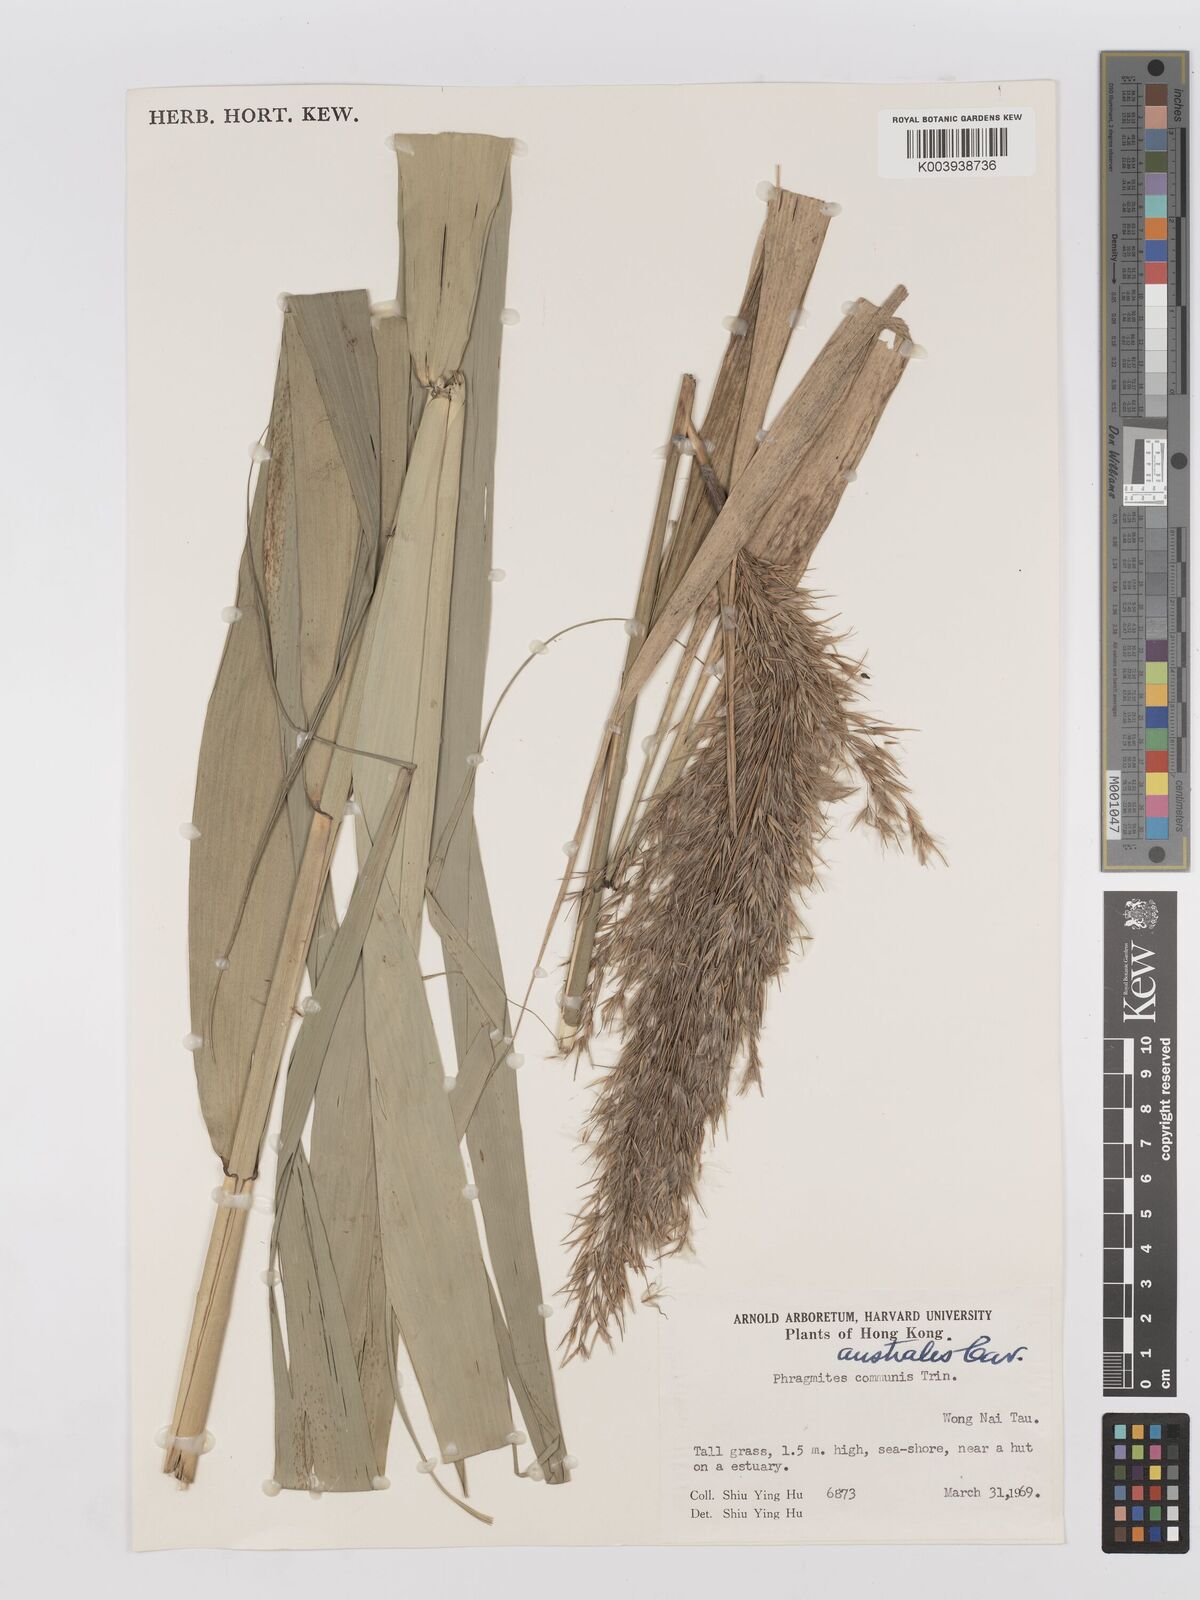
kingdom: Plantae
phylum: Tracheophyta
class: Liliopsida
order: Poales
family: Poaceae
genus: Phragmites
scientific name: Phragmites australis
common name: Common reed
